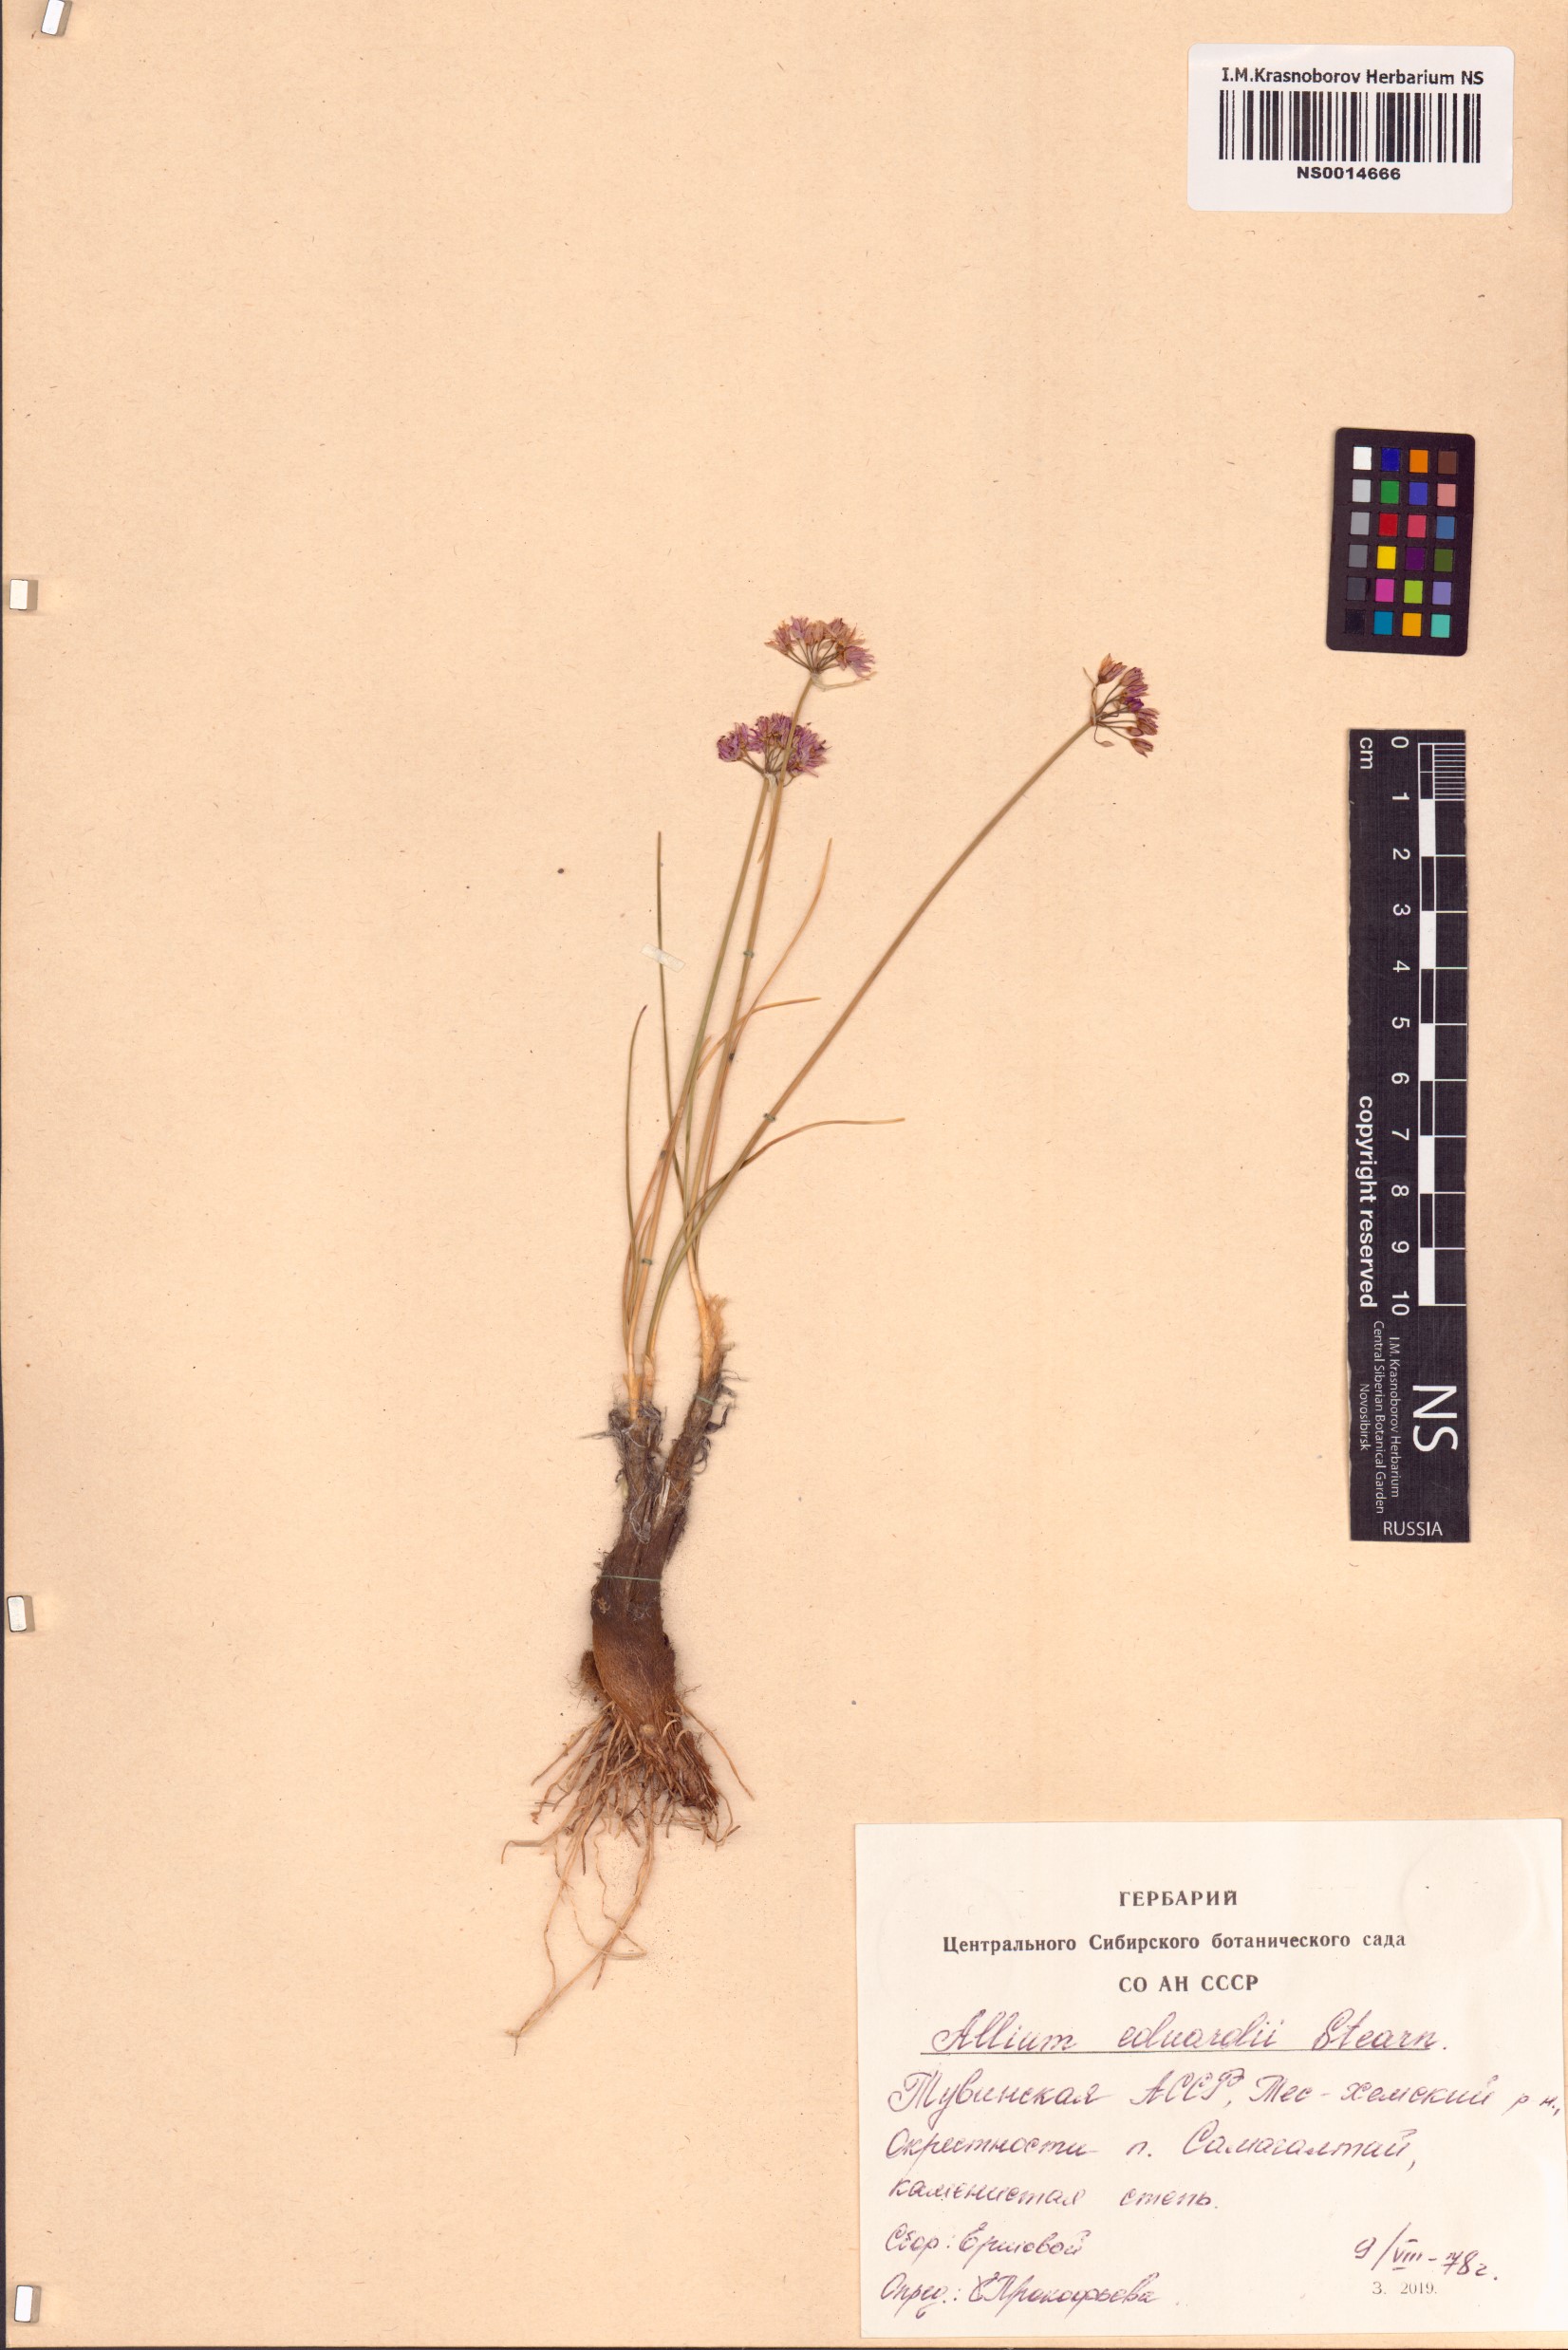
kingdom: Plantae
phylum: Tracheophyta
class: Liliopsida
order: Asparagales
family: Amaryllidaceae
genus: Allium
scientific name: Allium eduardi
